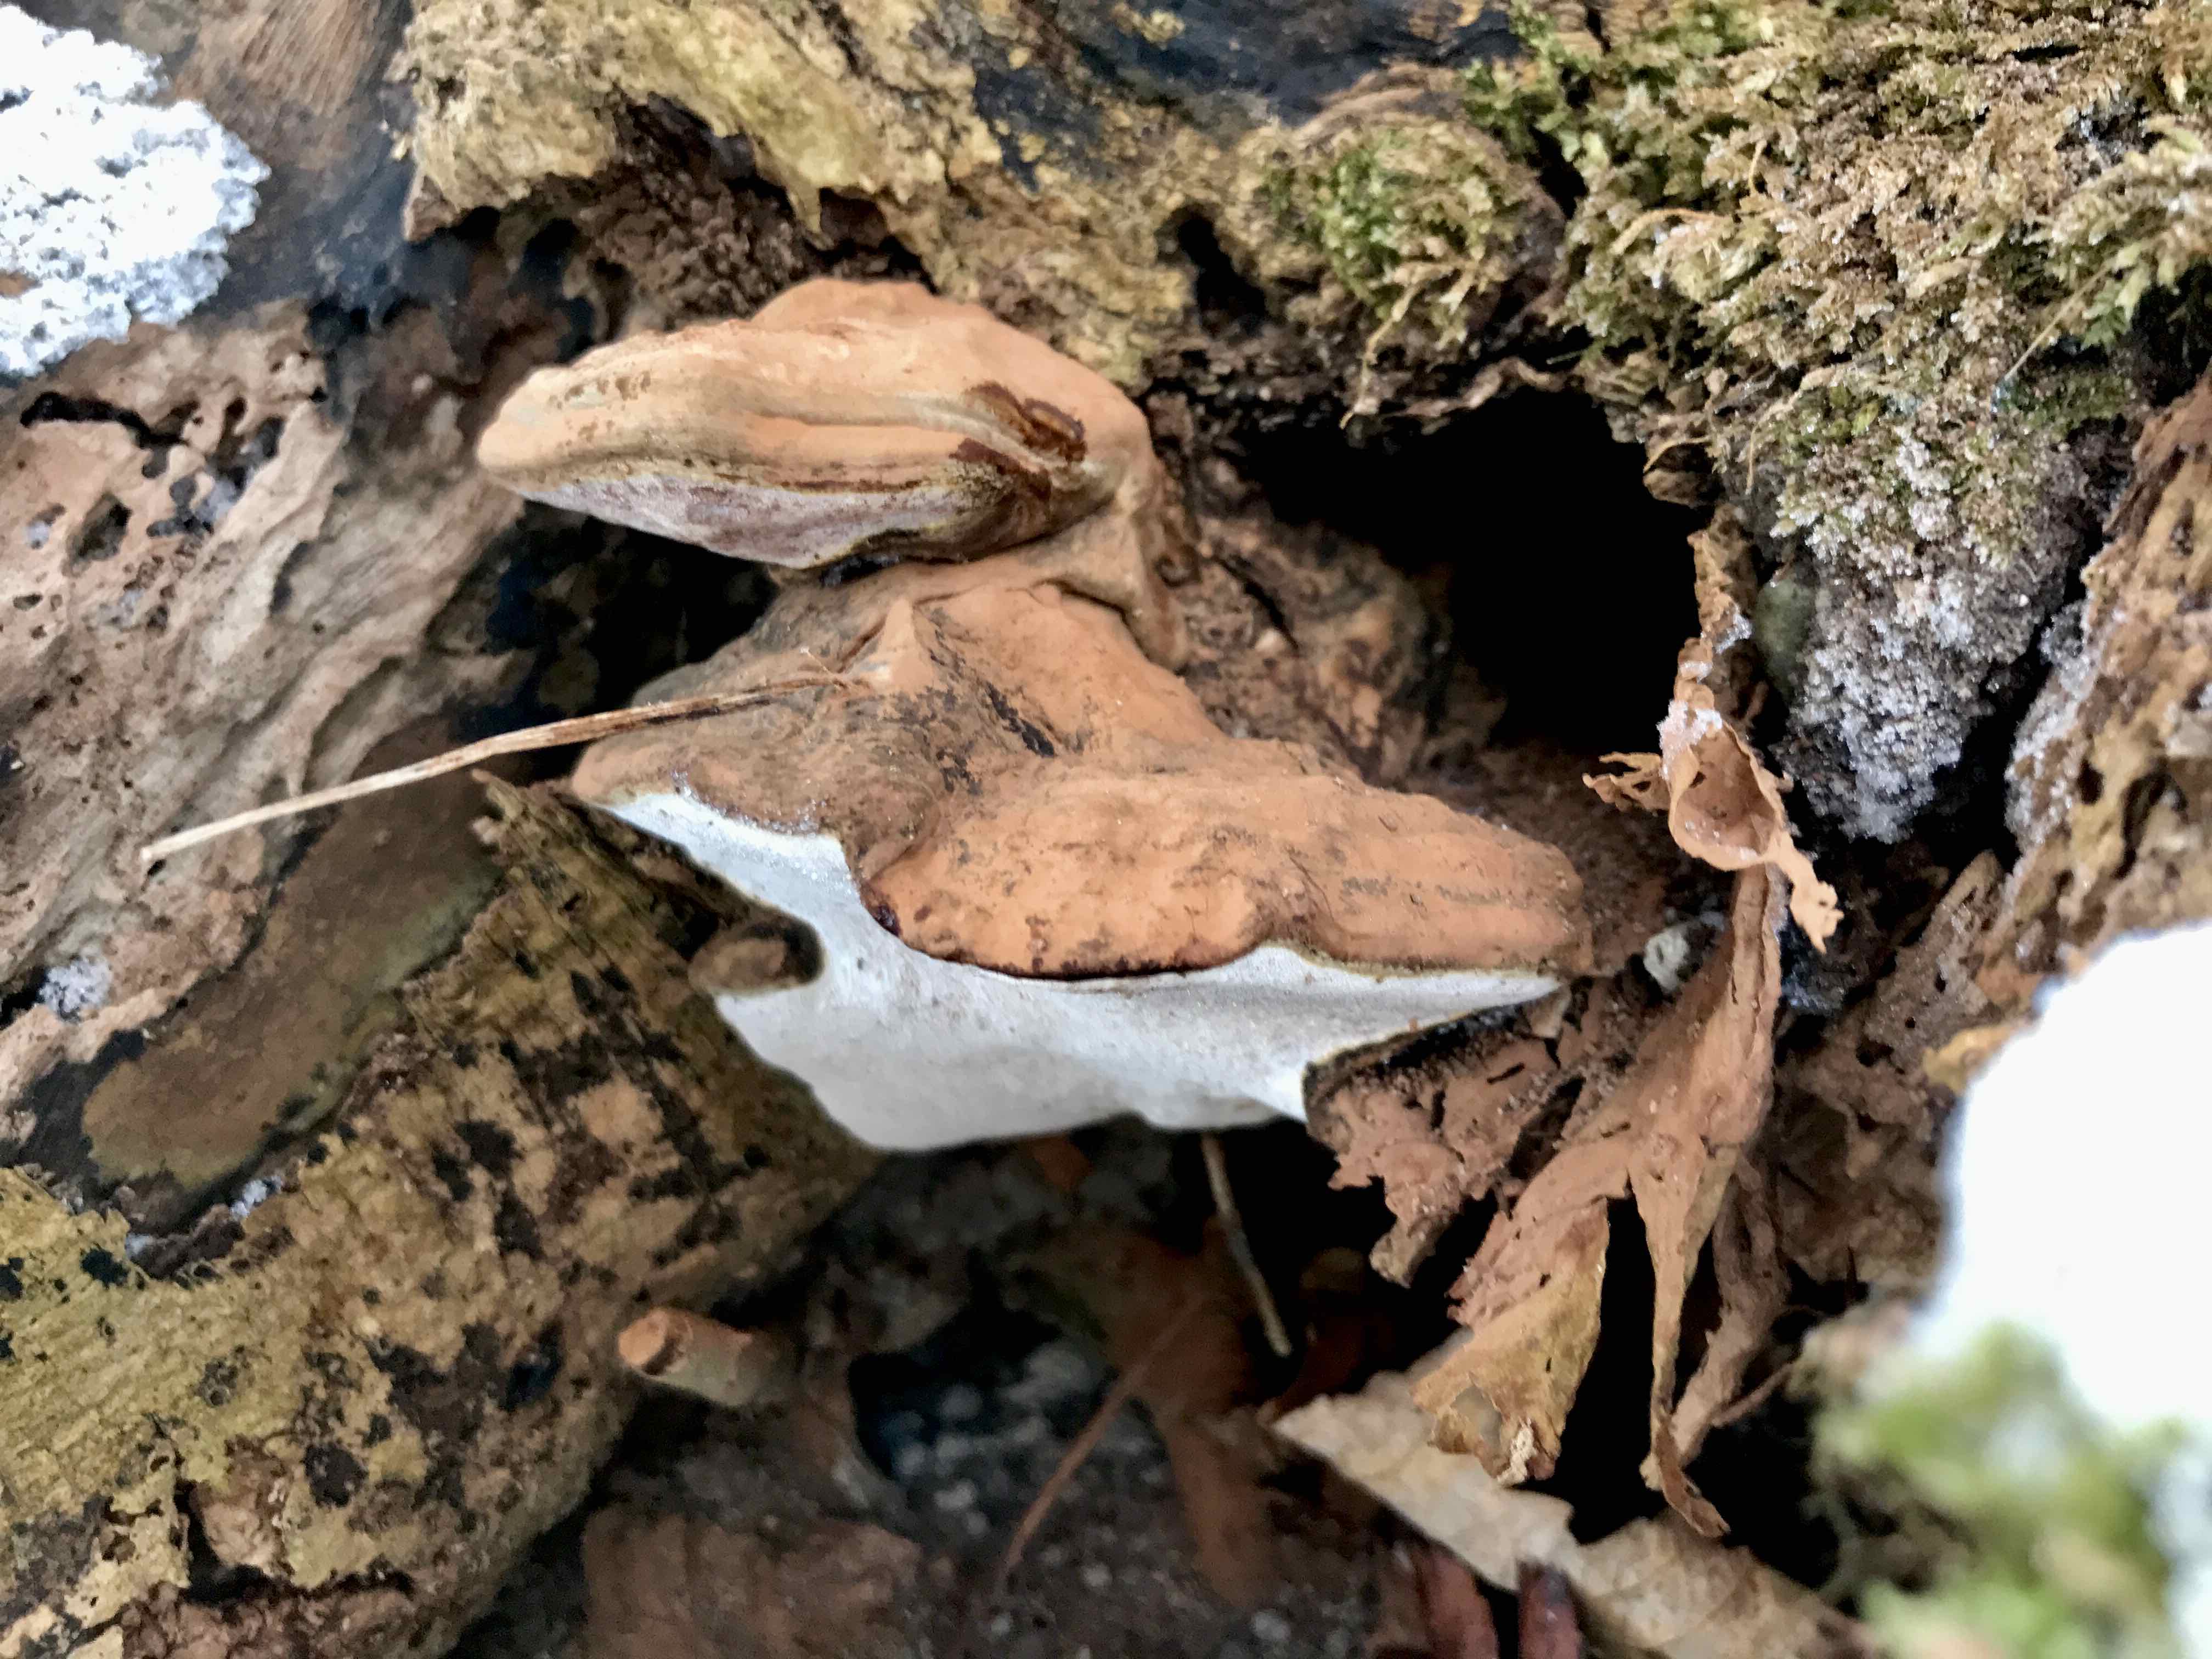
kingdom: Fungi
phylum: Basidiomycota
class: Agaricomycetes
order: Polyporales
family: Polyporaceae
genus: Ganoderma
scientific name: Ganoderma applanatum
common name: flad lakporesvamp
